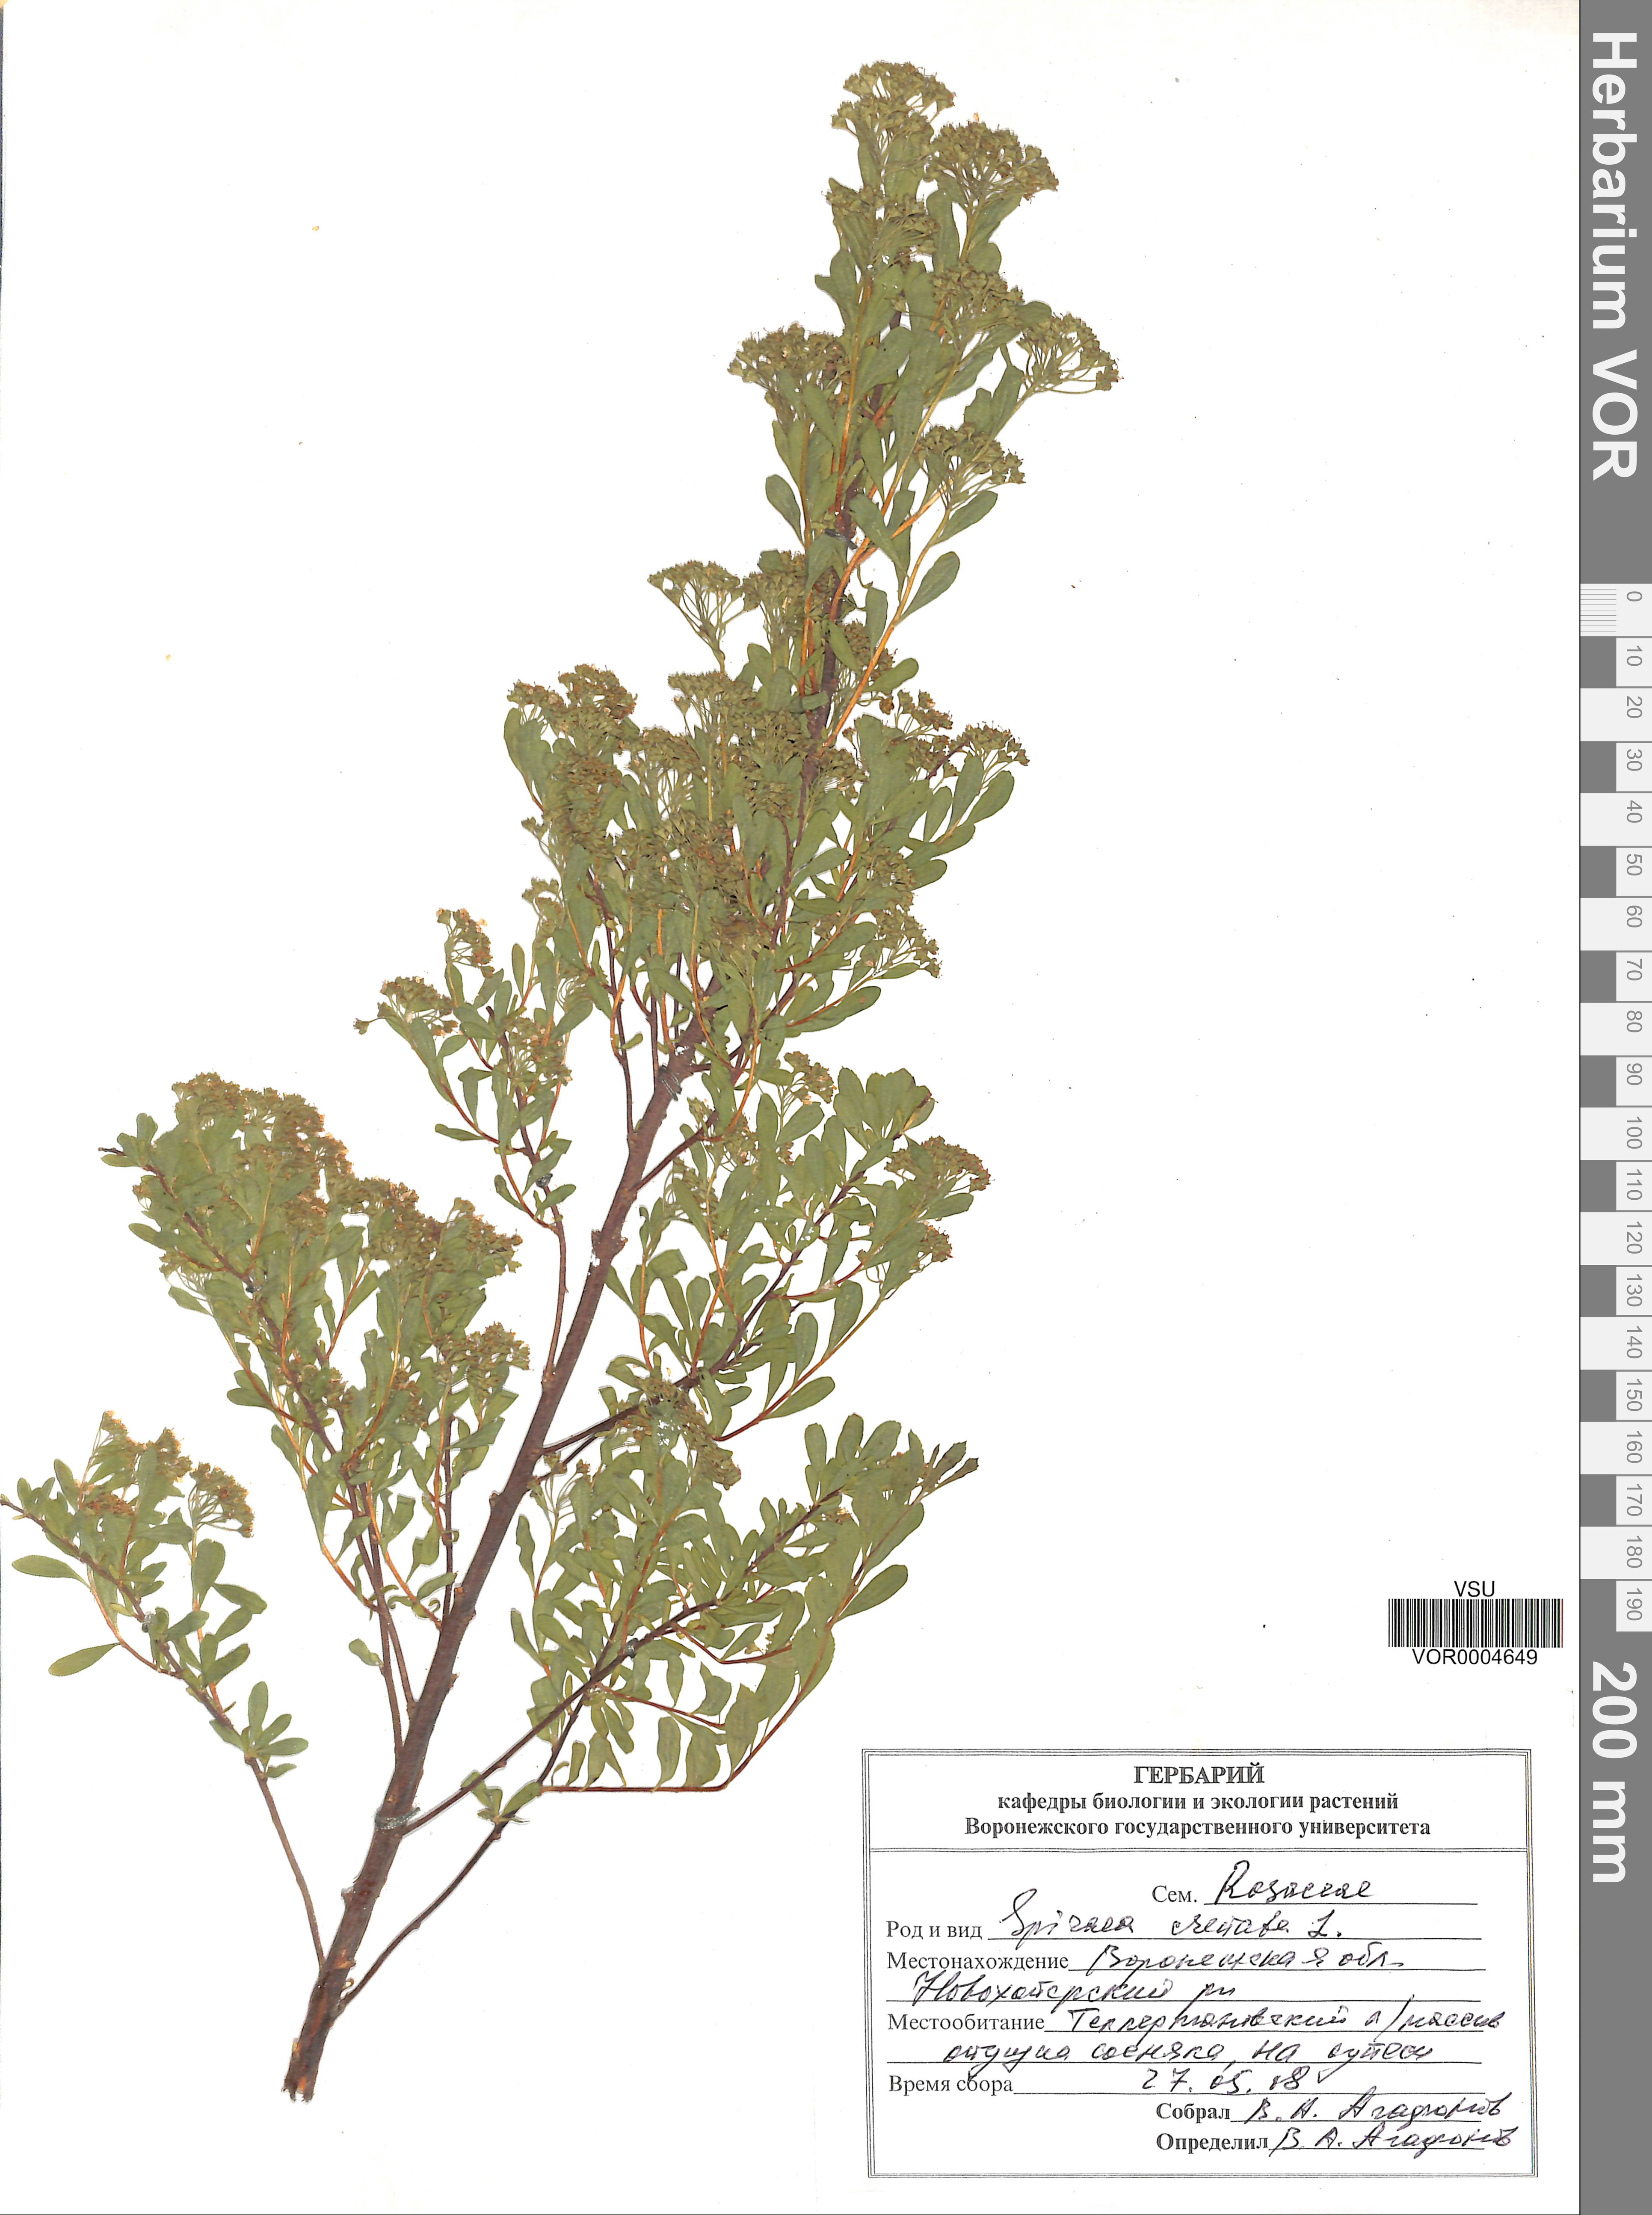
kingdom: Plantae
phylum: Tracheophyta
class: Magnoliopsida
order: Rosales
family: Rosaceae
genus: Spiraea
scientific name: Spiraea crenata
